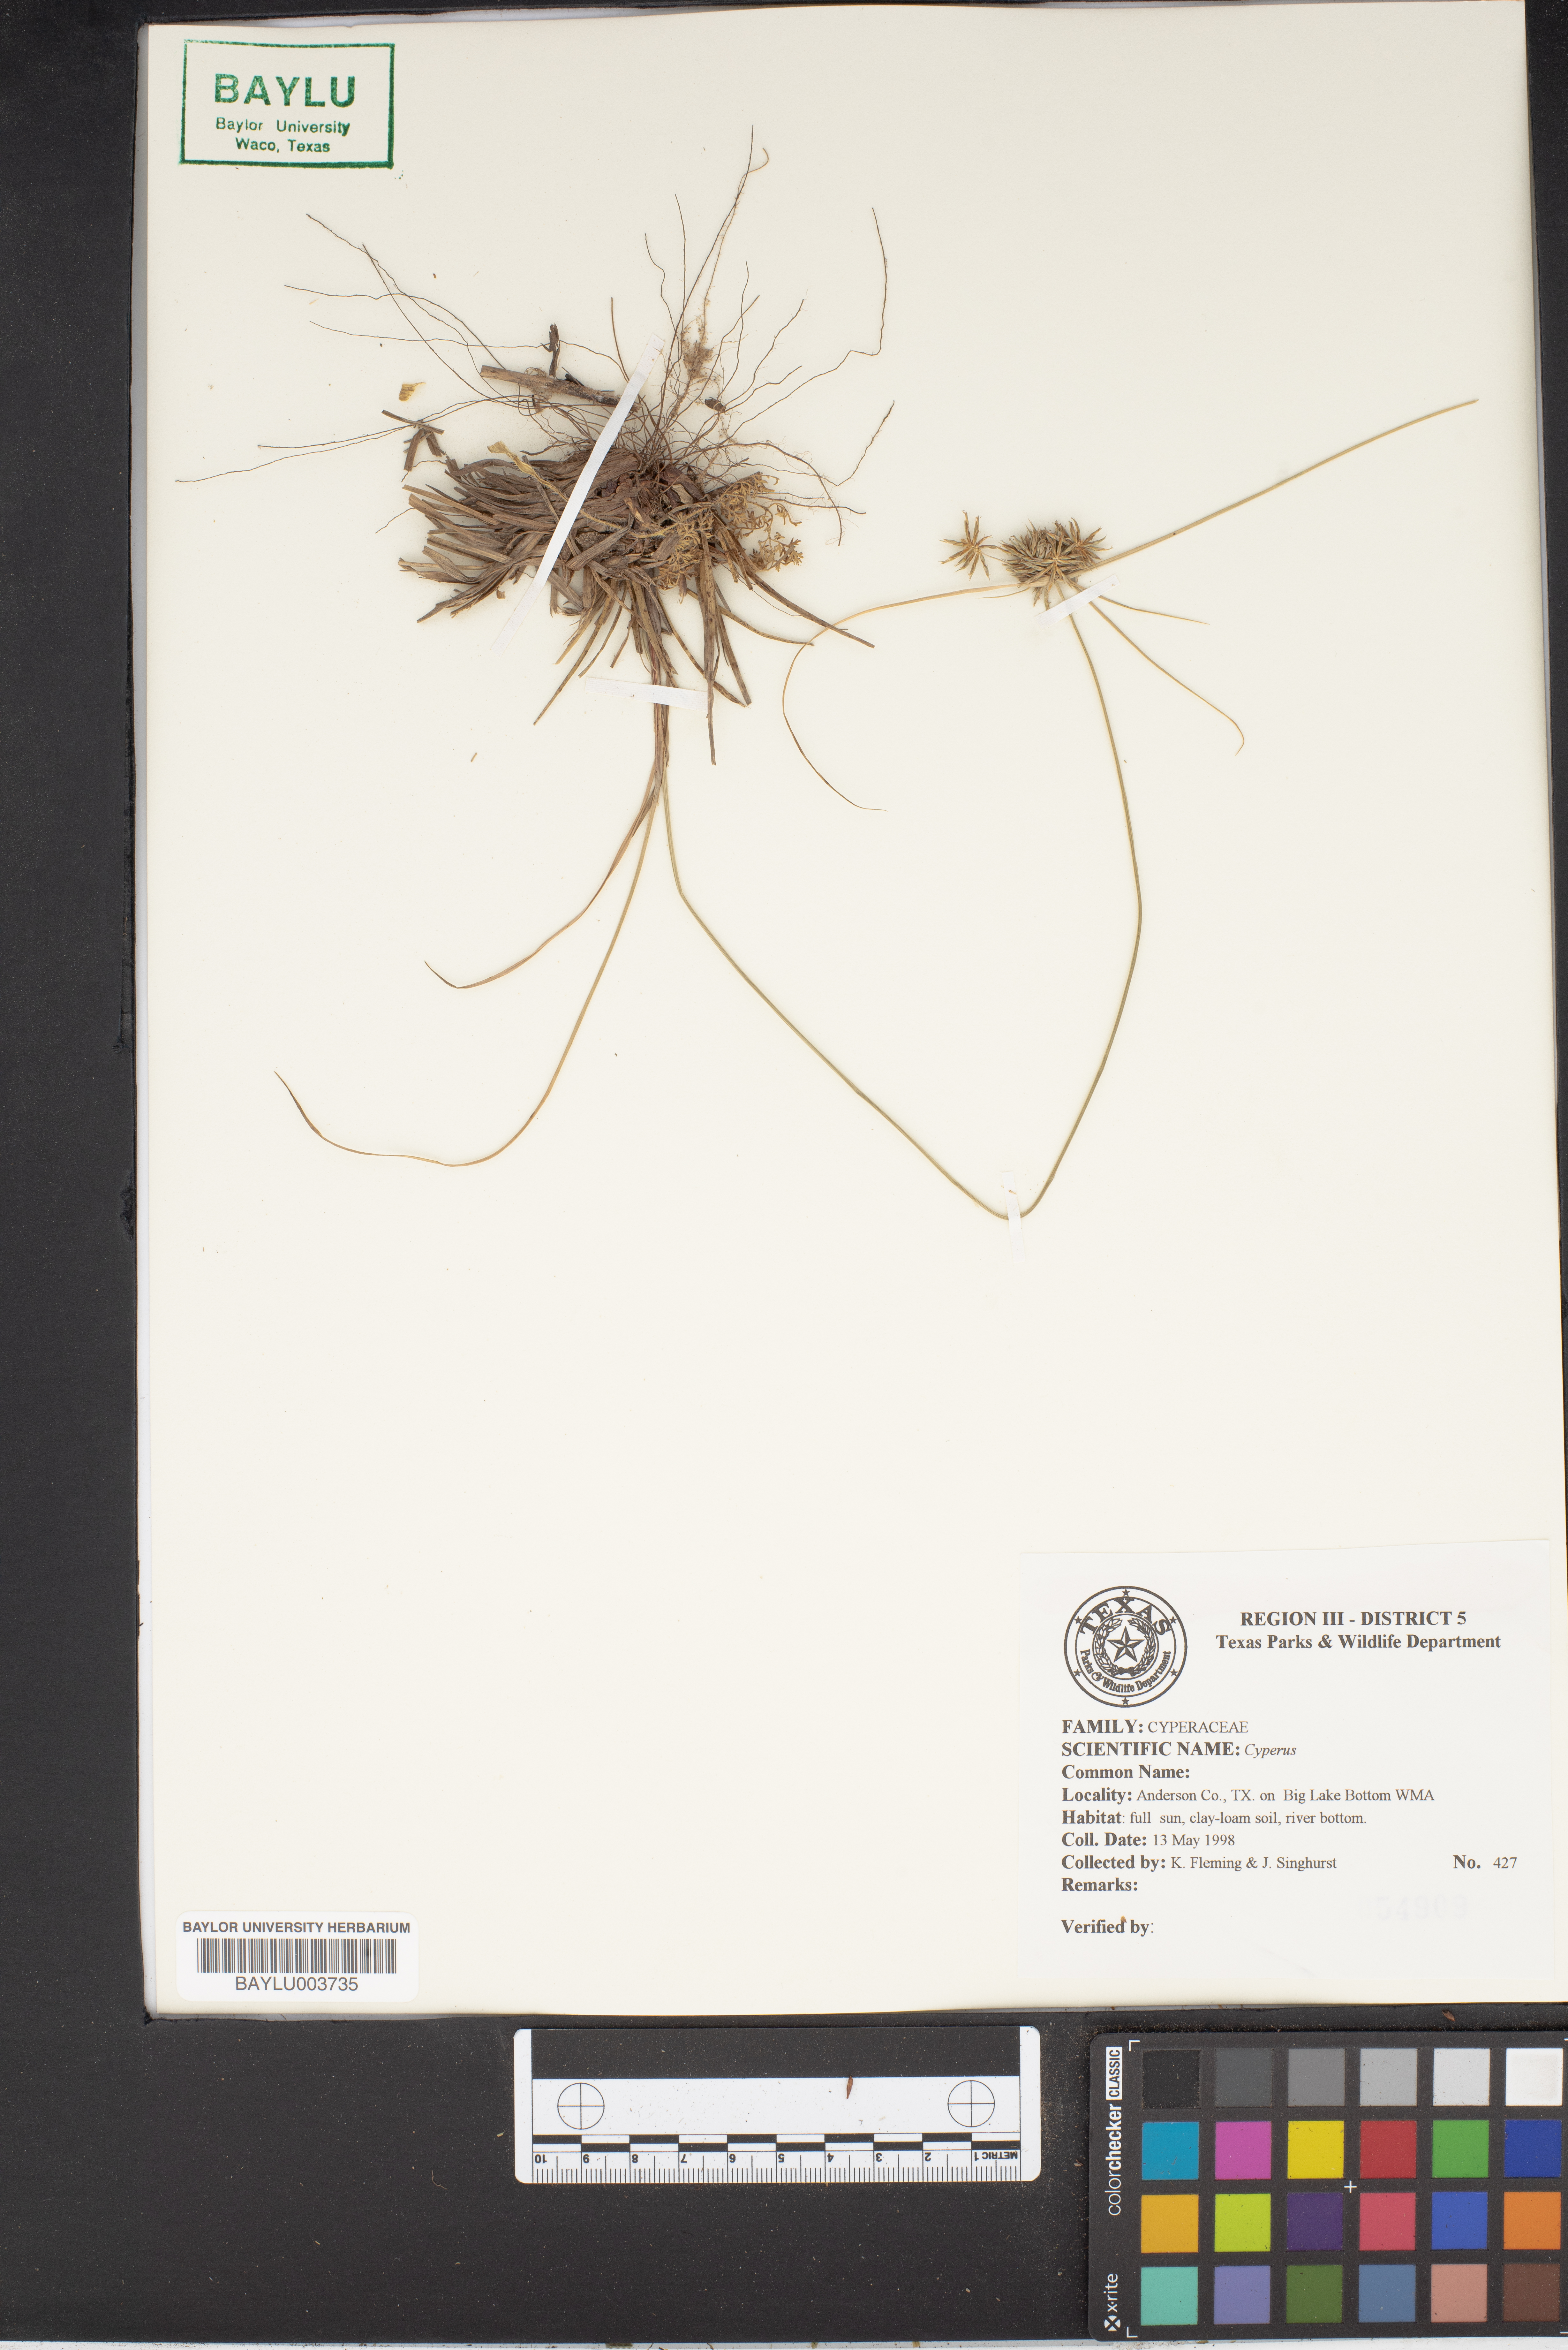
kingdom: Plantae
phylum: Tracheophyta
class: Liliopsida
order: Poales
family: Cyperaceae
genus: Cyperus
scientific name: Cyperus
